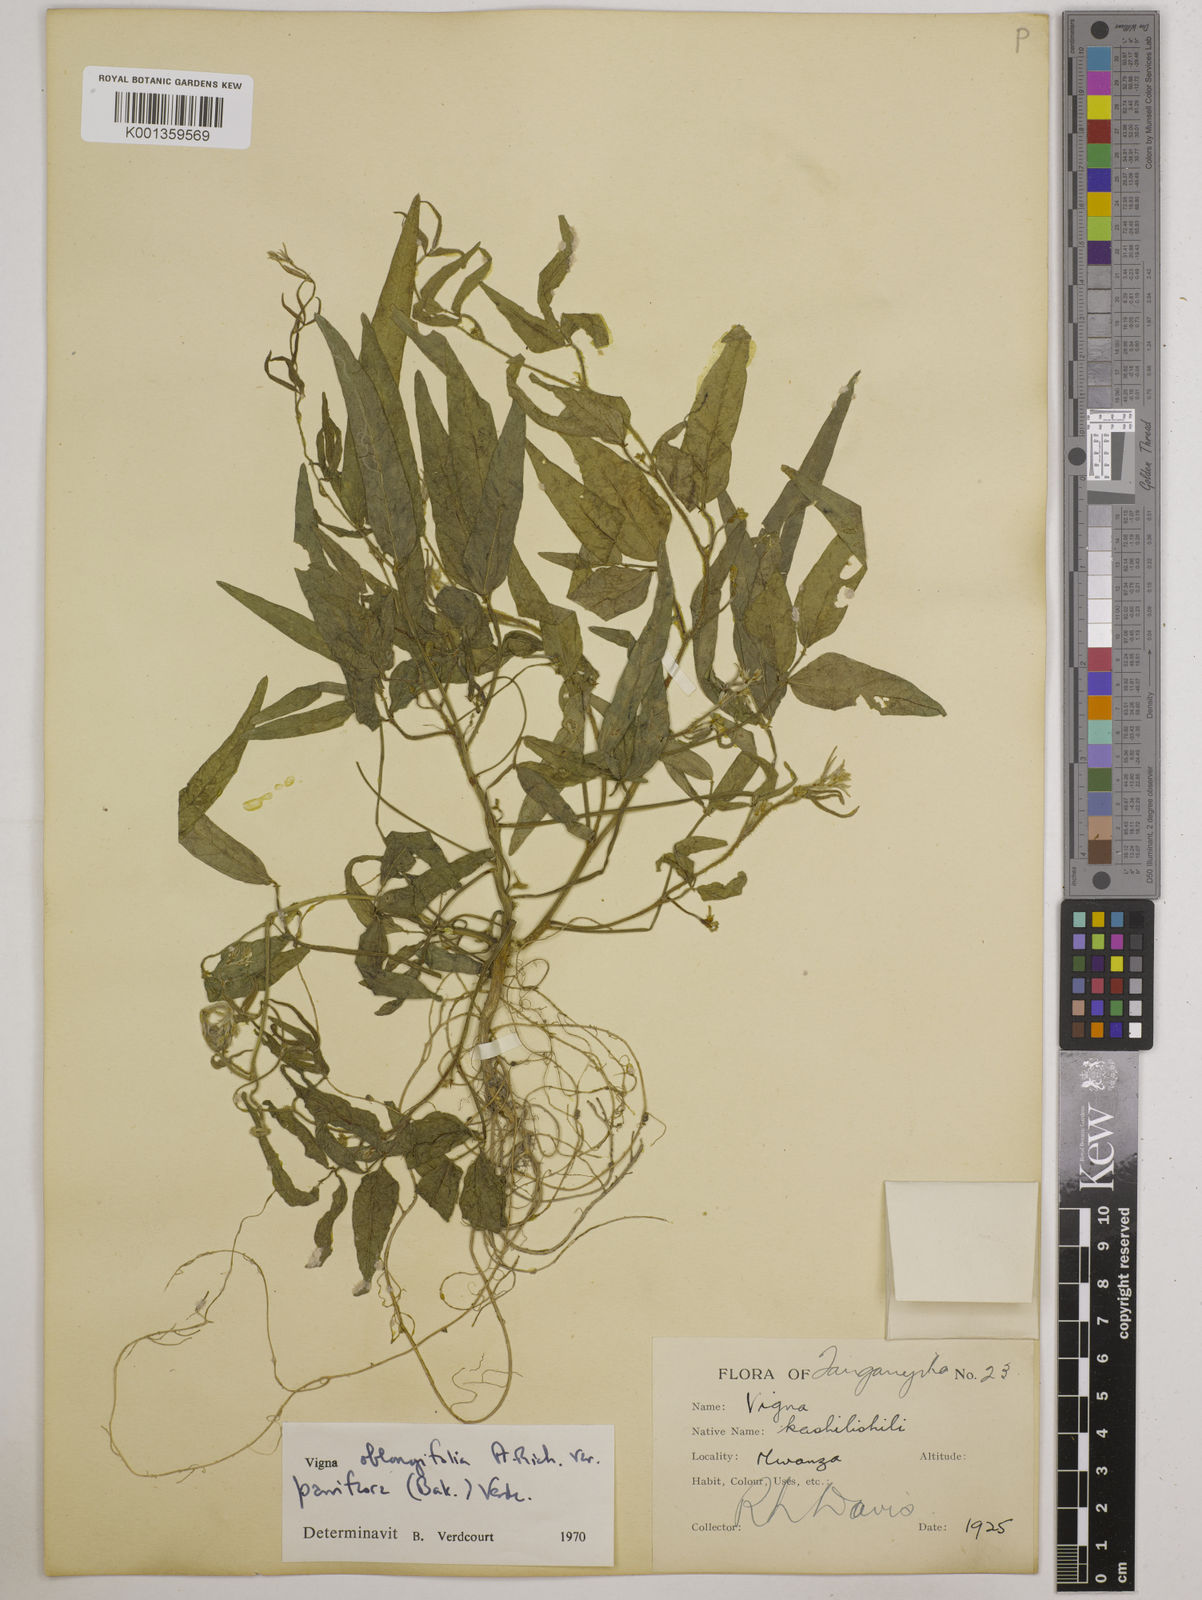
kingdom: Plantae
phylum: Tracheophyta
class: Magnoliopsida
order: Fabales
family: Fabaceae
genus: Vigna
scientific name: Vigna
